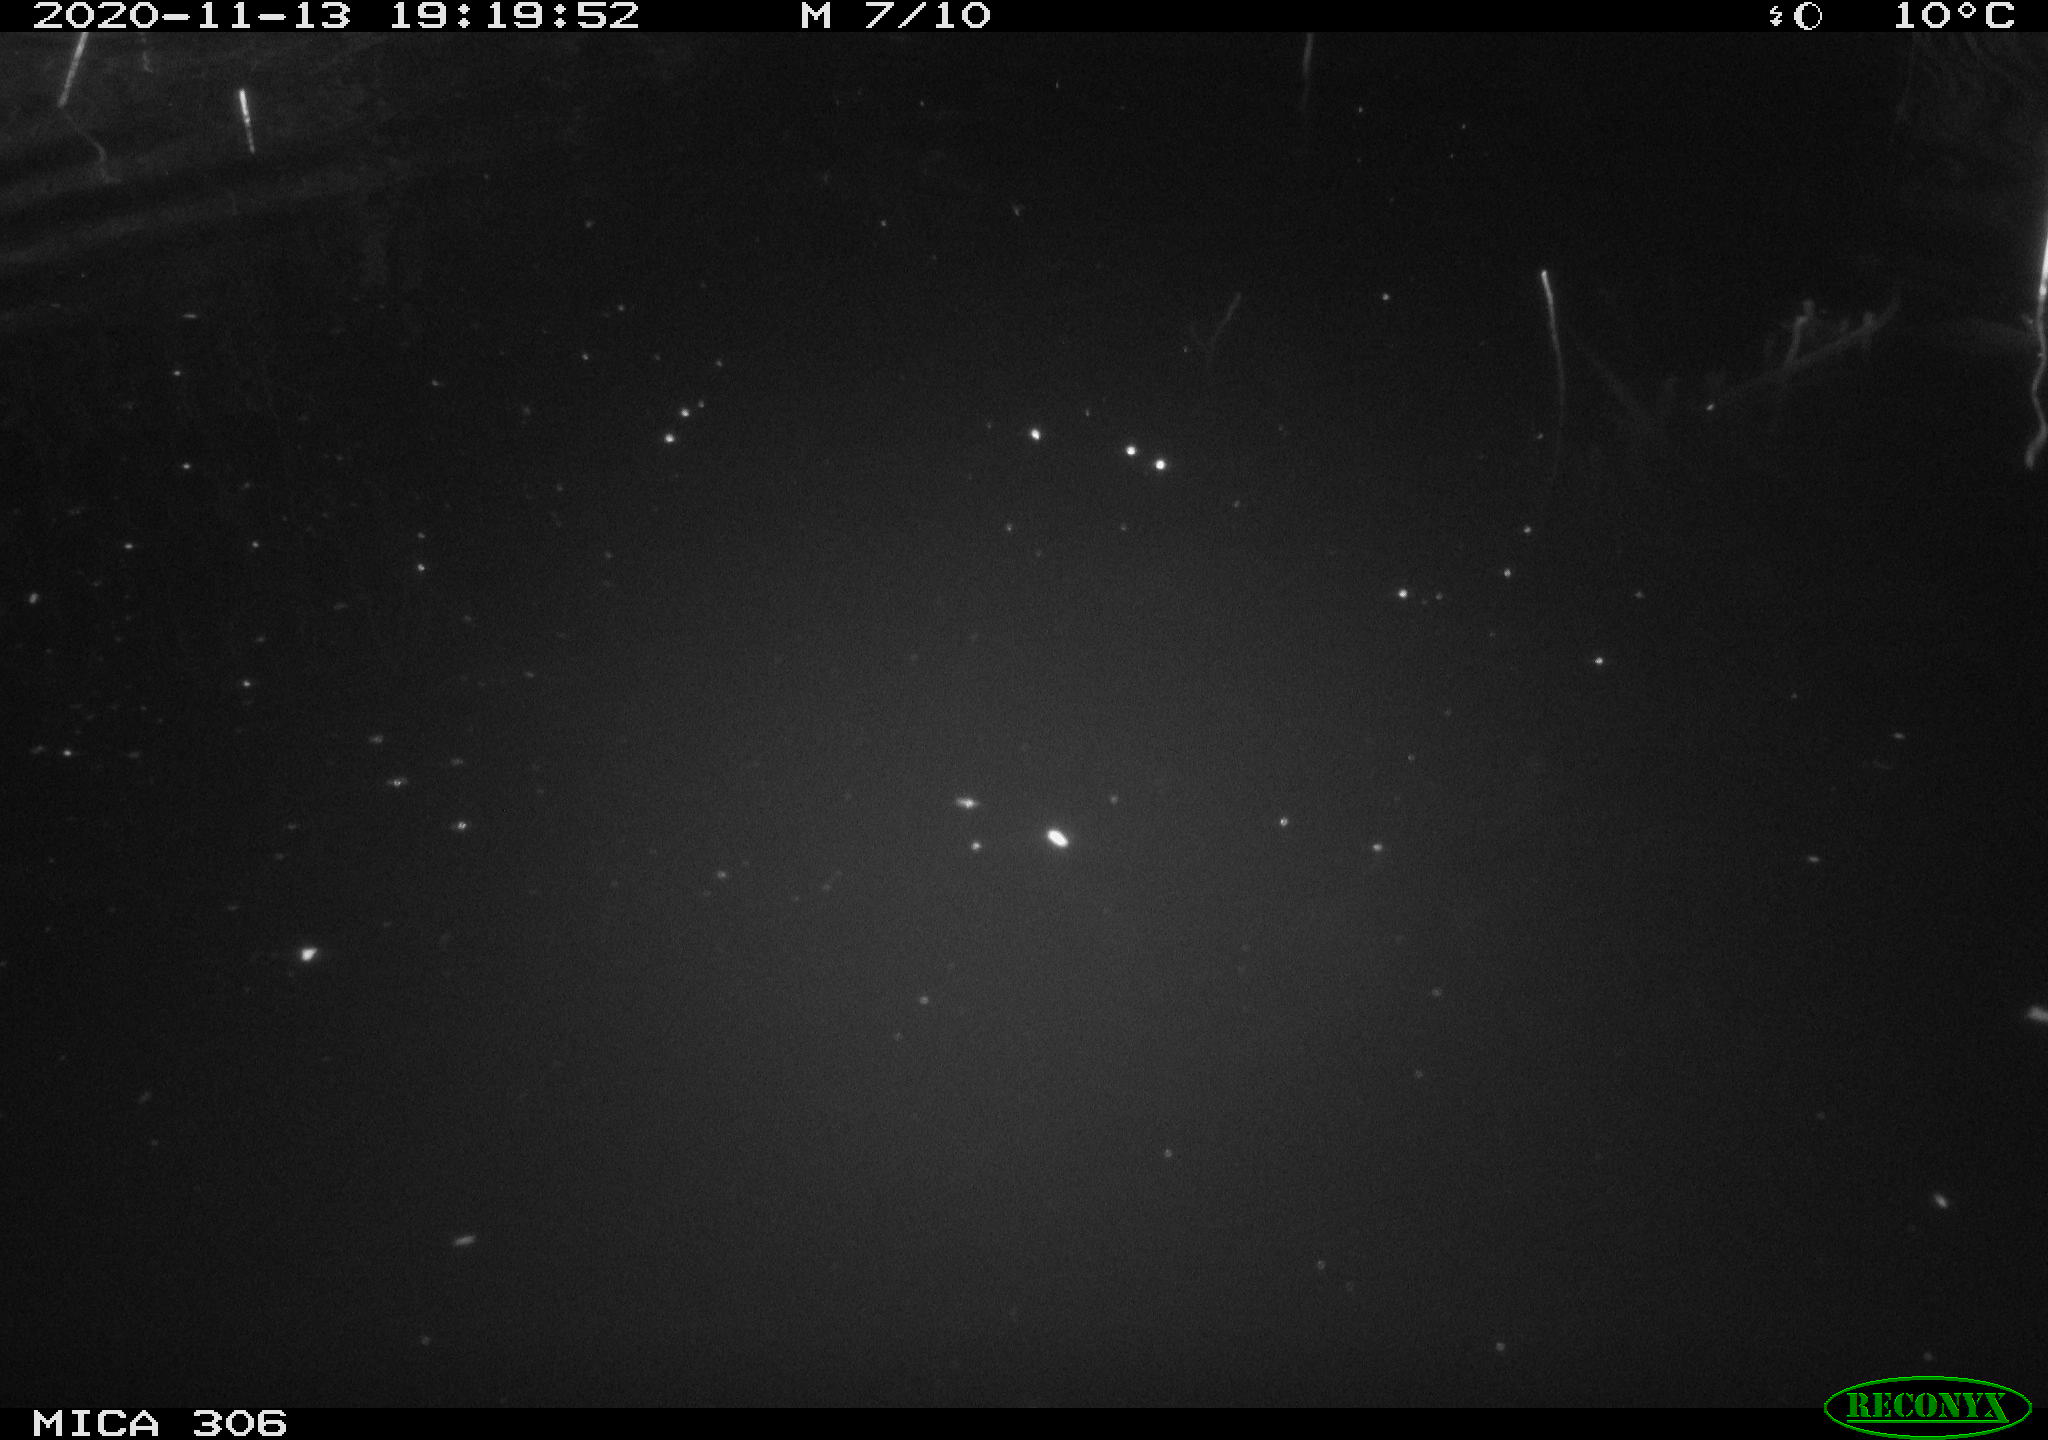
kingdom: Animalia
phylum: Chordata
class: Mammalia
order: Rodentia
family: Cricetidae
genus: Ondatra
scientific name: Ondatra zibethicus
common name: Muskrat
